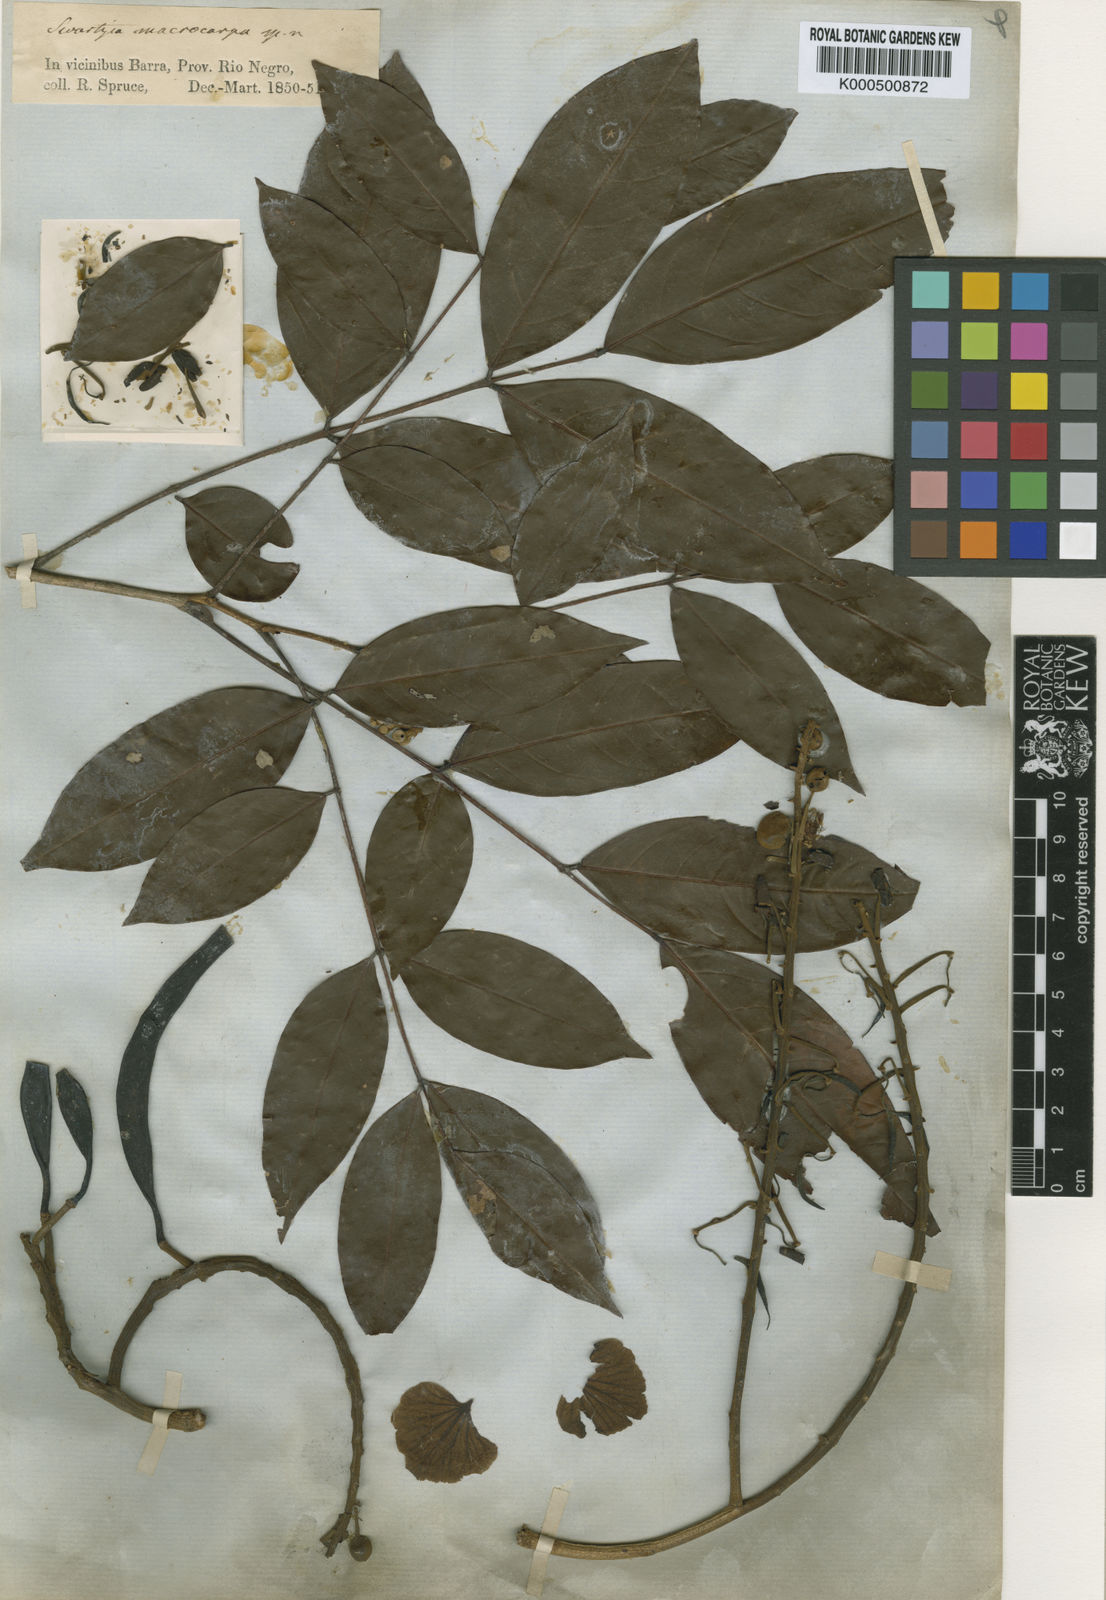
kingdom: Plantae
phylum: Tracheophyta
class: Magnoliopsida
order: Fabales
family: Fabaceae
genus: Swartzia
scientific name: Swartzia macrocarpa
